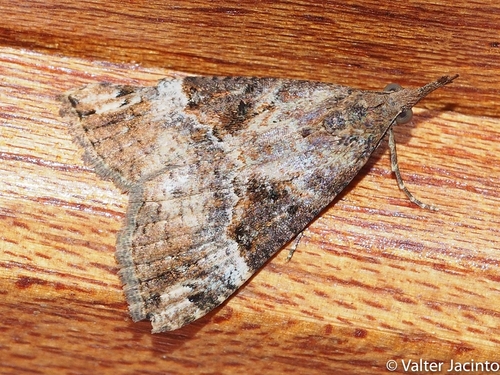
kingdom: Animalia
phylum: Arthropoda
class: Insecta
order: Lepidoptera
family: Erebidae
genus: Hypena
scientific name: Hypena obsitalis
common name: Bloxworth snout
